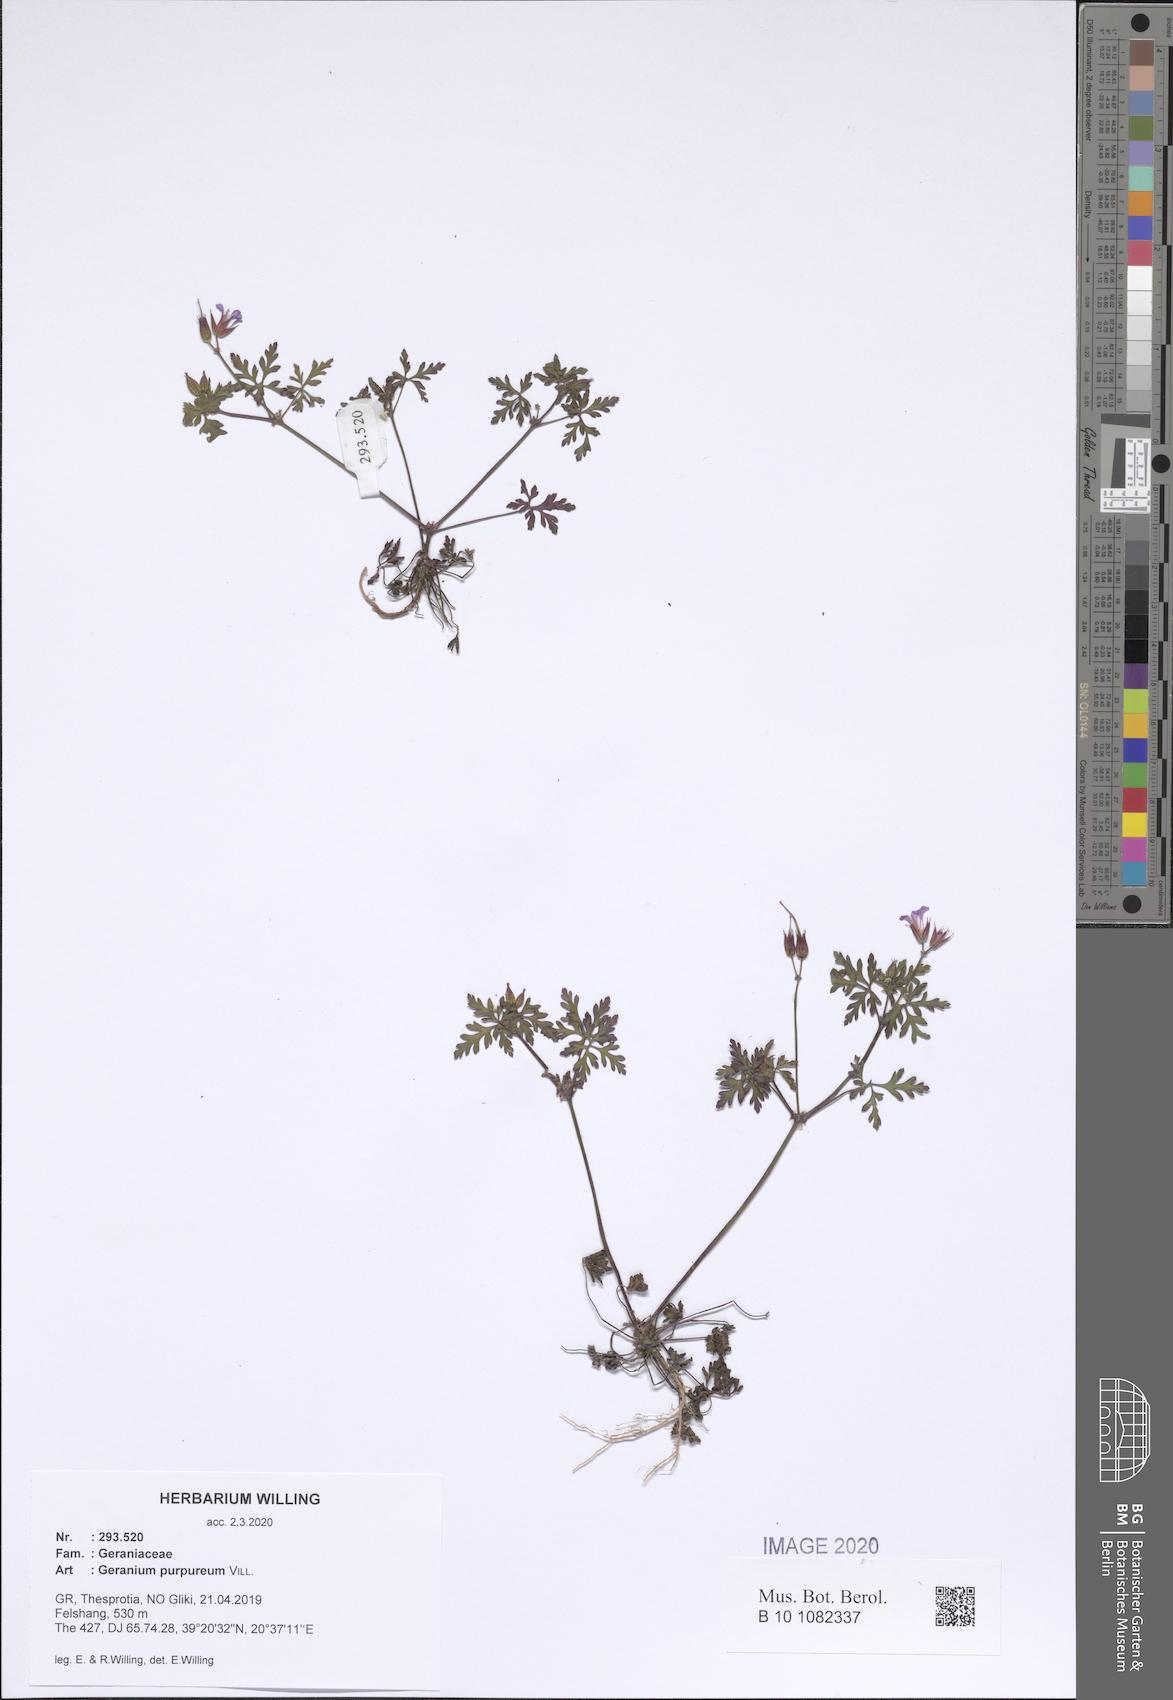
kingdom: Plantae
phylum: Tracheophyta
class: Magnoliopsida
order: Geraniales
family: Geraniaceae
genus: Geranium
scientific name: Geranium purpureum
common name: Little-robin
